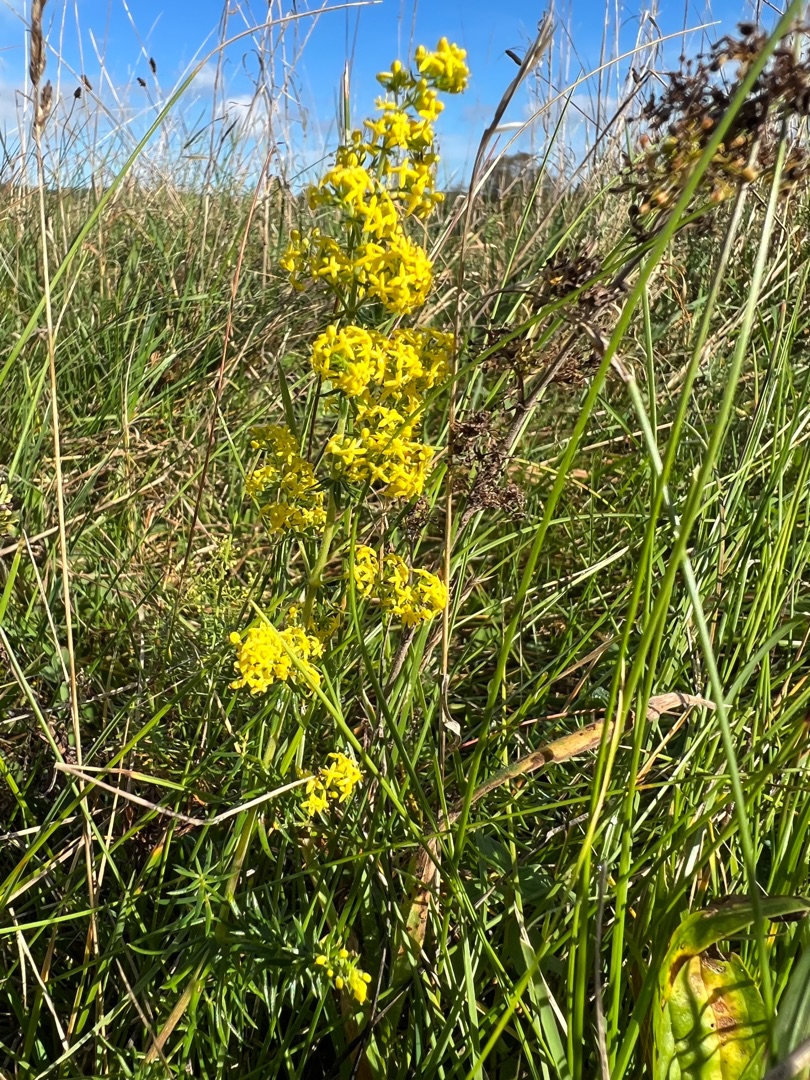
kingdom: Plantae
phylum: Tracheophyta
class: Magnoliopsida
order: Gentianales
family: Rubiaceae
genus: Galium
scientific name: Galium verum
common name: Gul snerre
